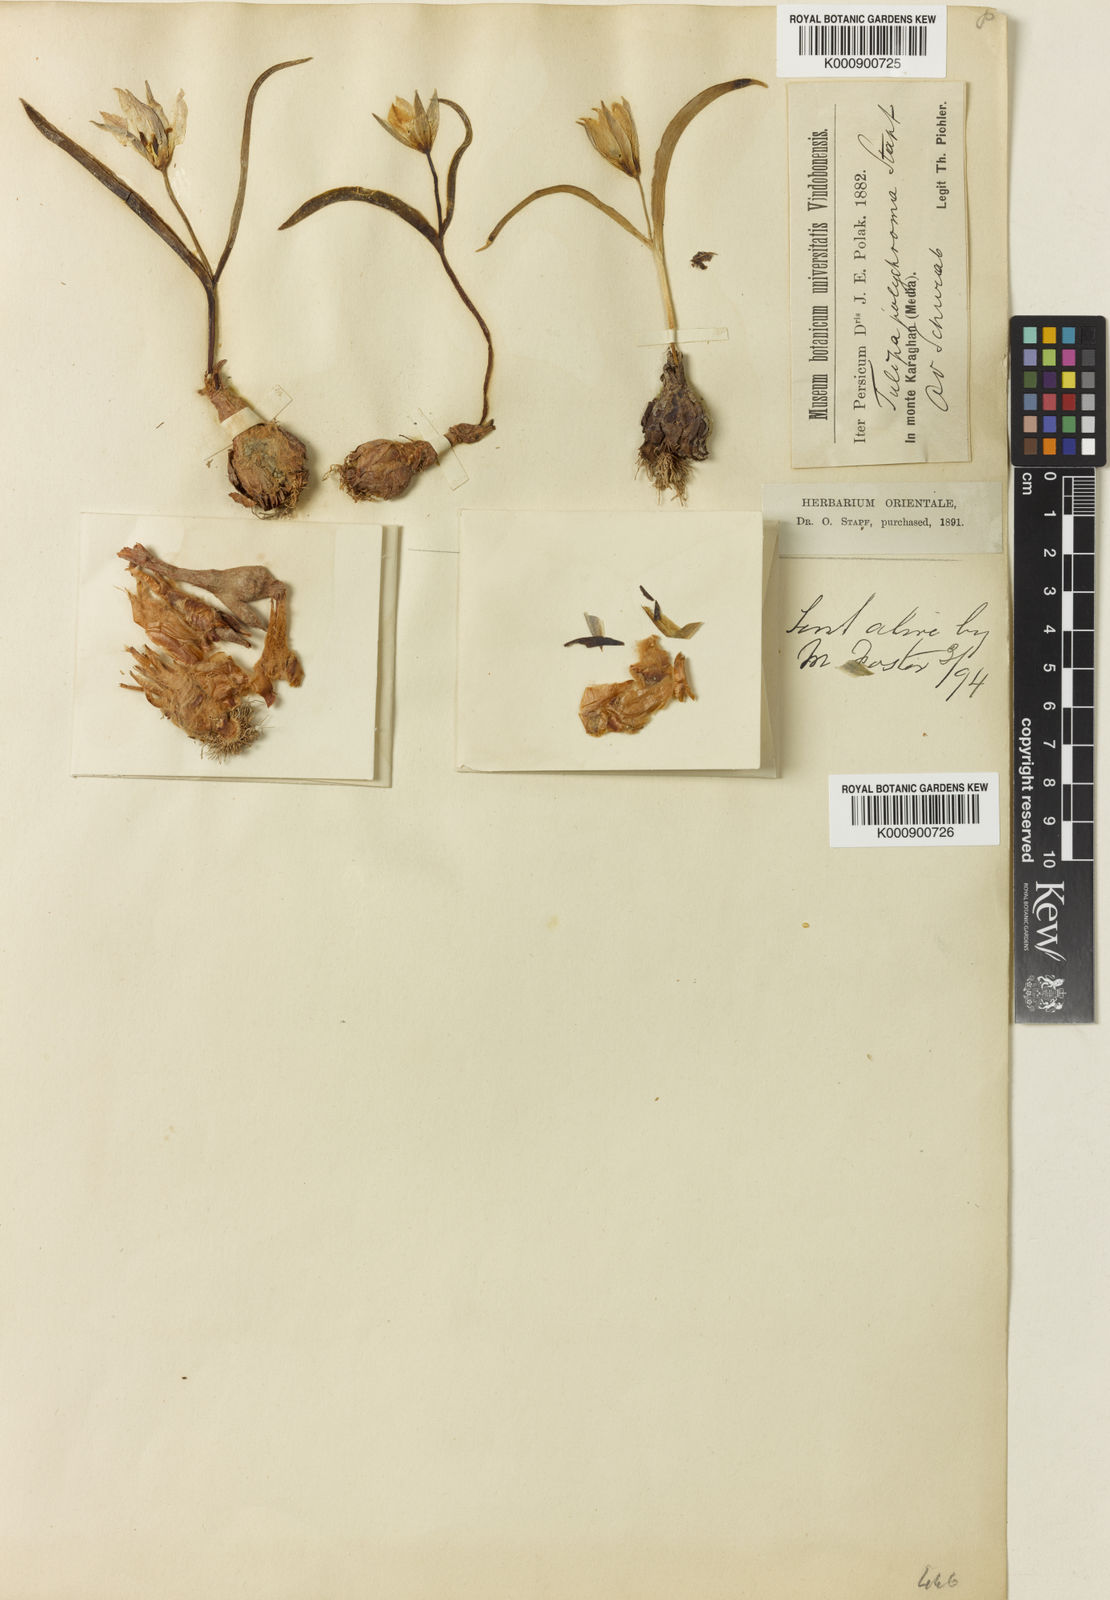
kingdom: Plantae
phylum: Tracheophyta
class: Liliopsida
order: Liliales
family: Liliaceae
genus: Tulipa
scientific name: Tulipa biflora
